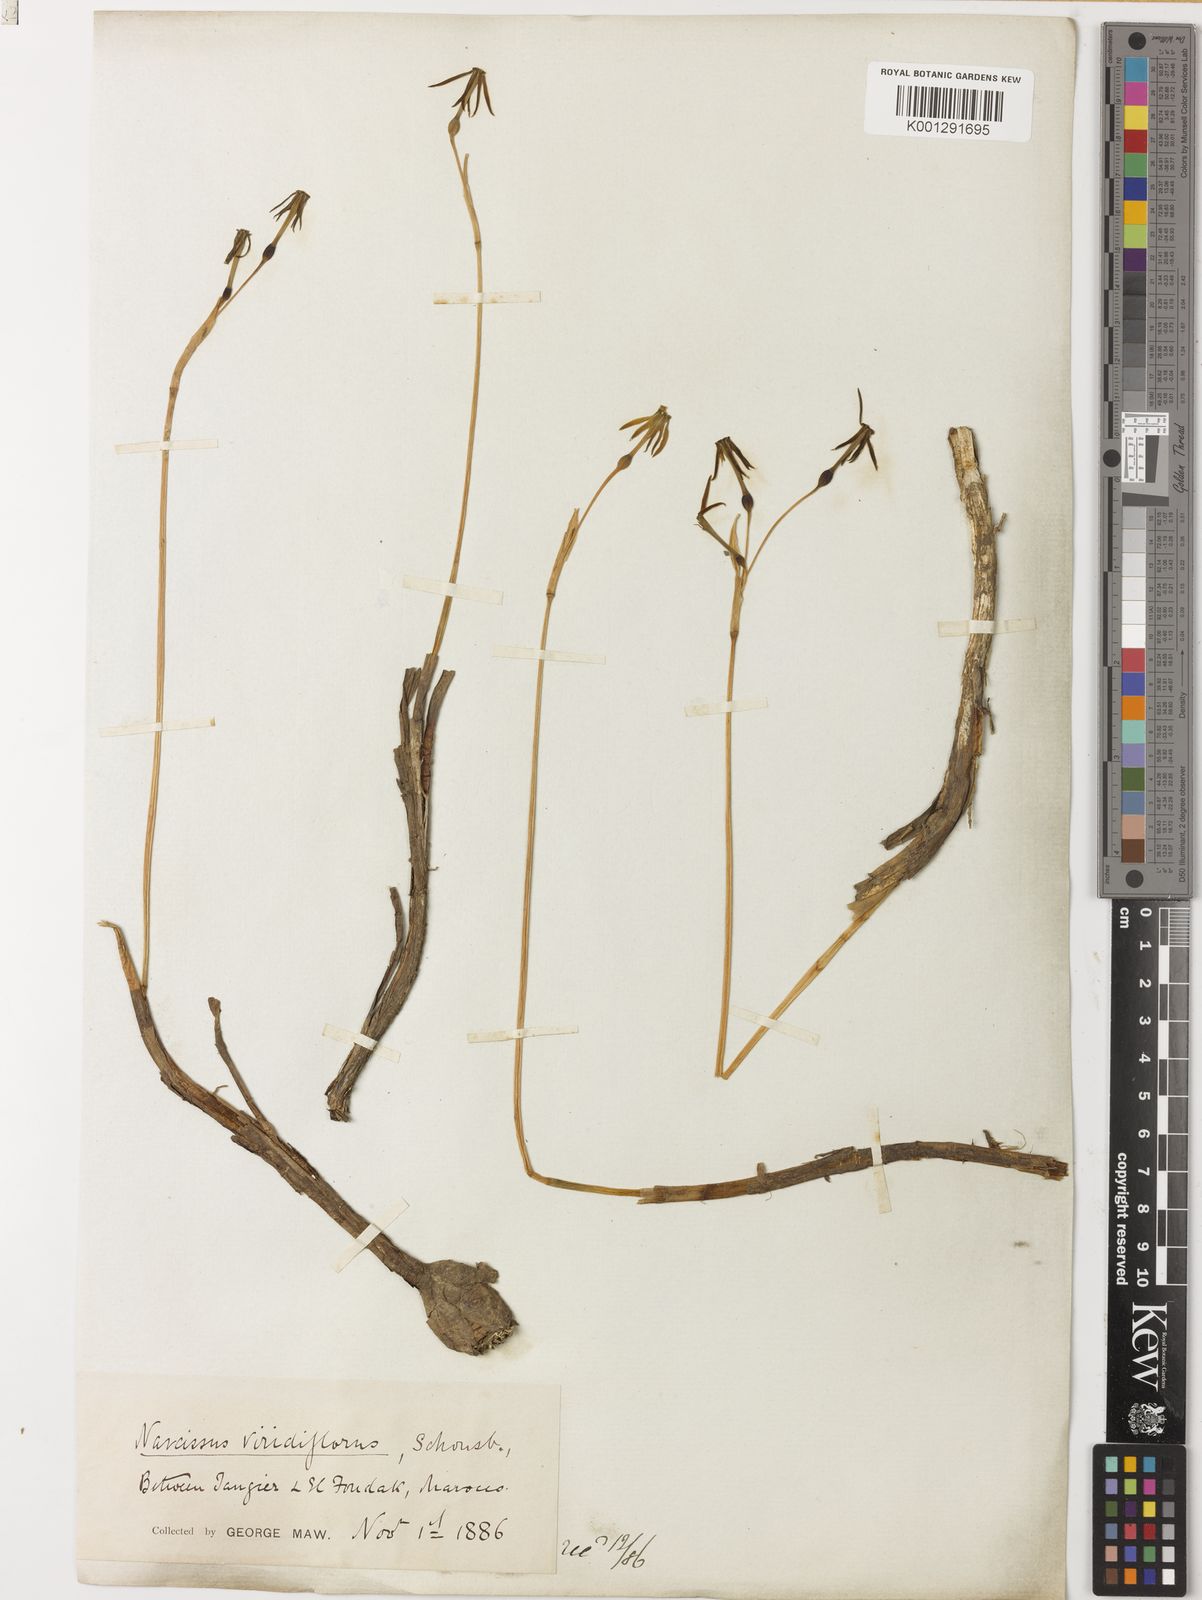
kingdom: Plantae
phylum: Tracheophyta
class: Liliopsida
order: Asparagales
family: Amaryllidaceae
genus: Narcissus
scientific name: Narcissus viridiflorus
